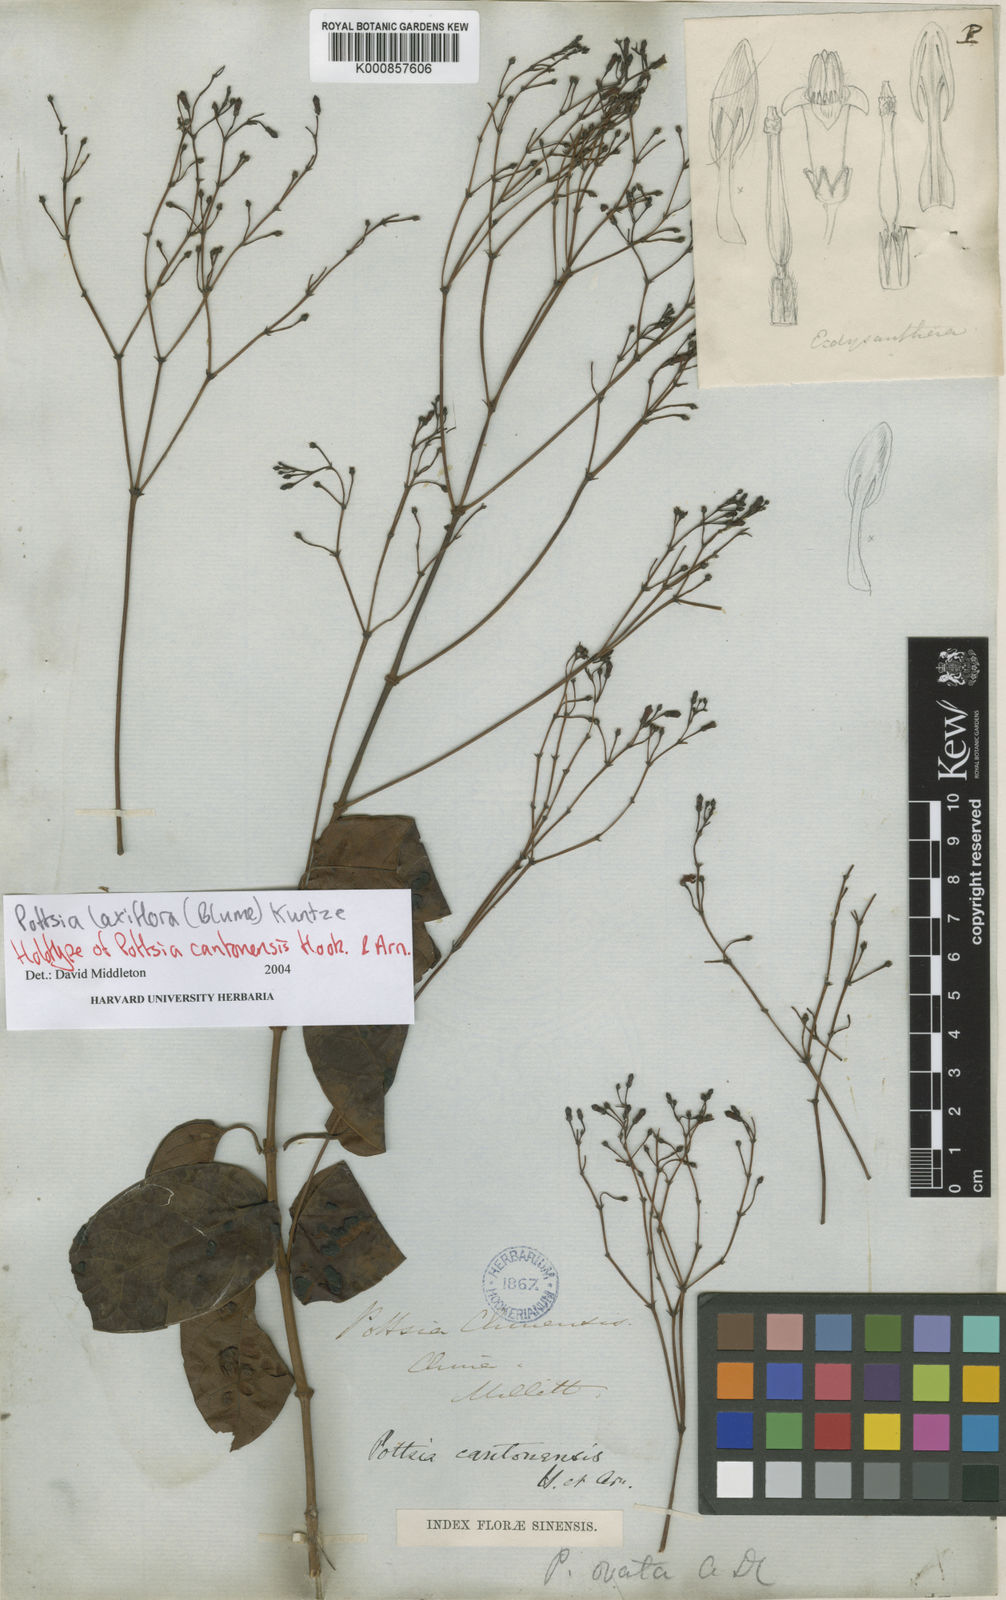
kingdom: Plantae
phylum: Tracheophyta
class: Magnoliopsida
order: Gentianales
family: Apocynaceae
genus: Pottsia
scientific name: Pottsia laxiflora
